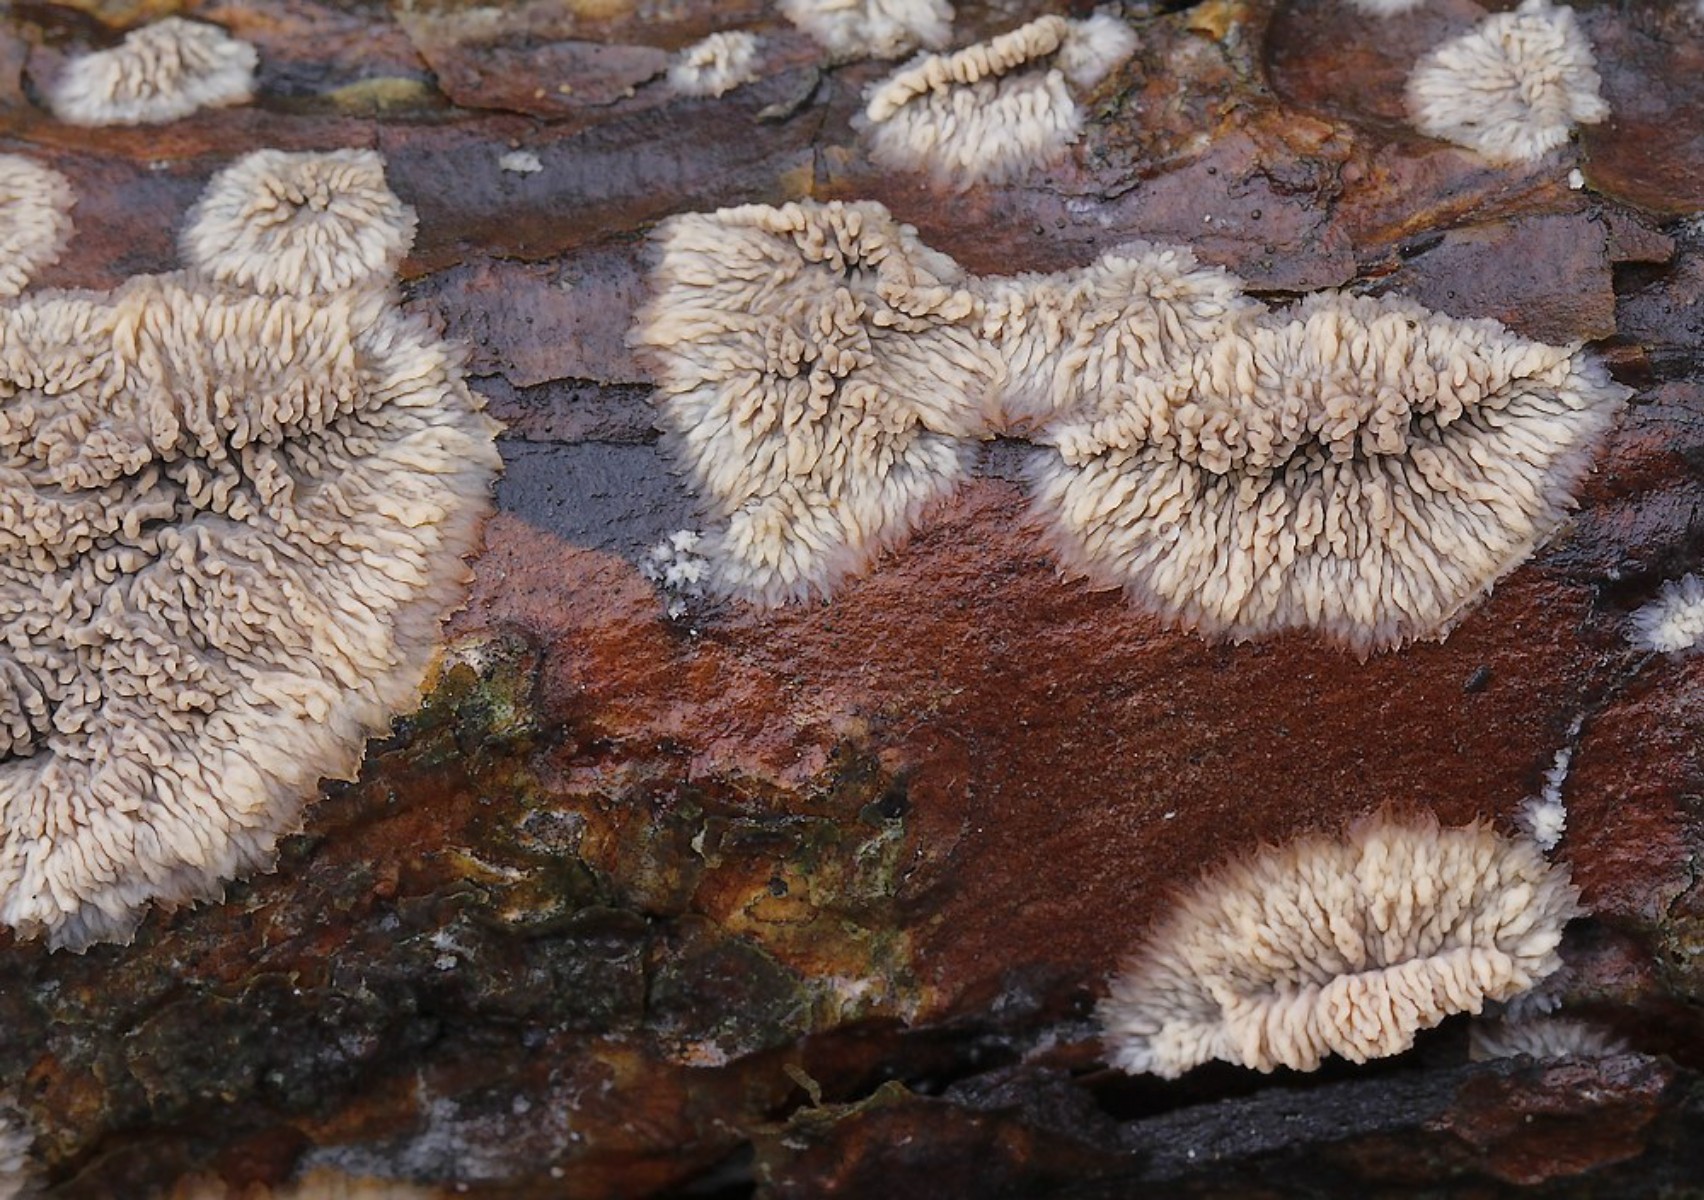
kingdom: Fungi
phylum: Basidiomycota
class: Agaricomycetes
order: Polyporales
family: Meruliaceae
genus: Phlebia
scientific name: Phlebia radiata
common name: stråle-åresvamp
